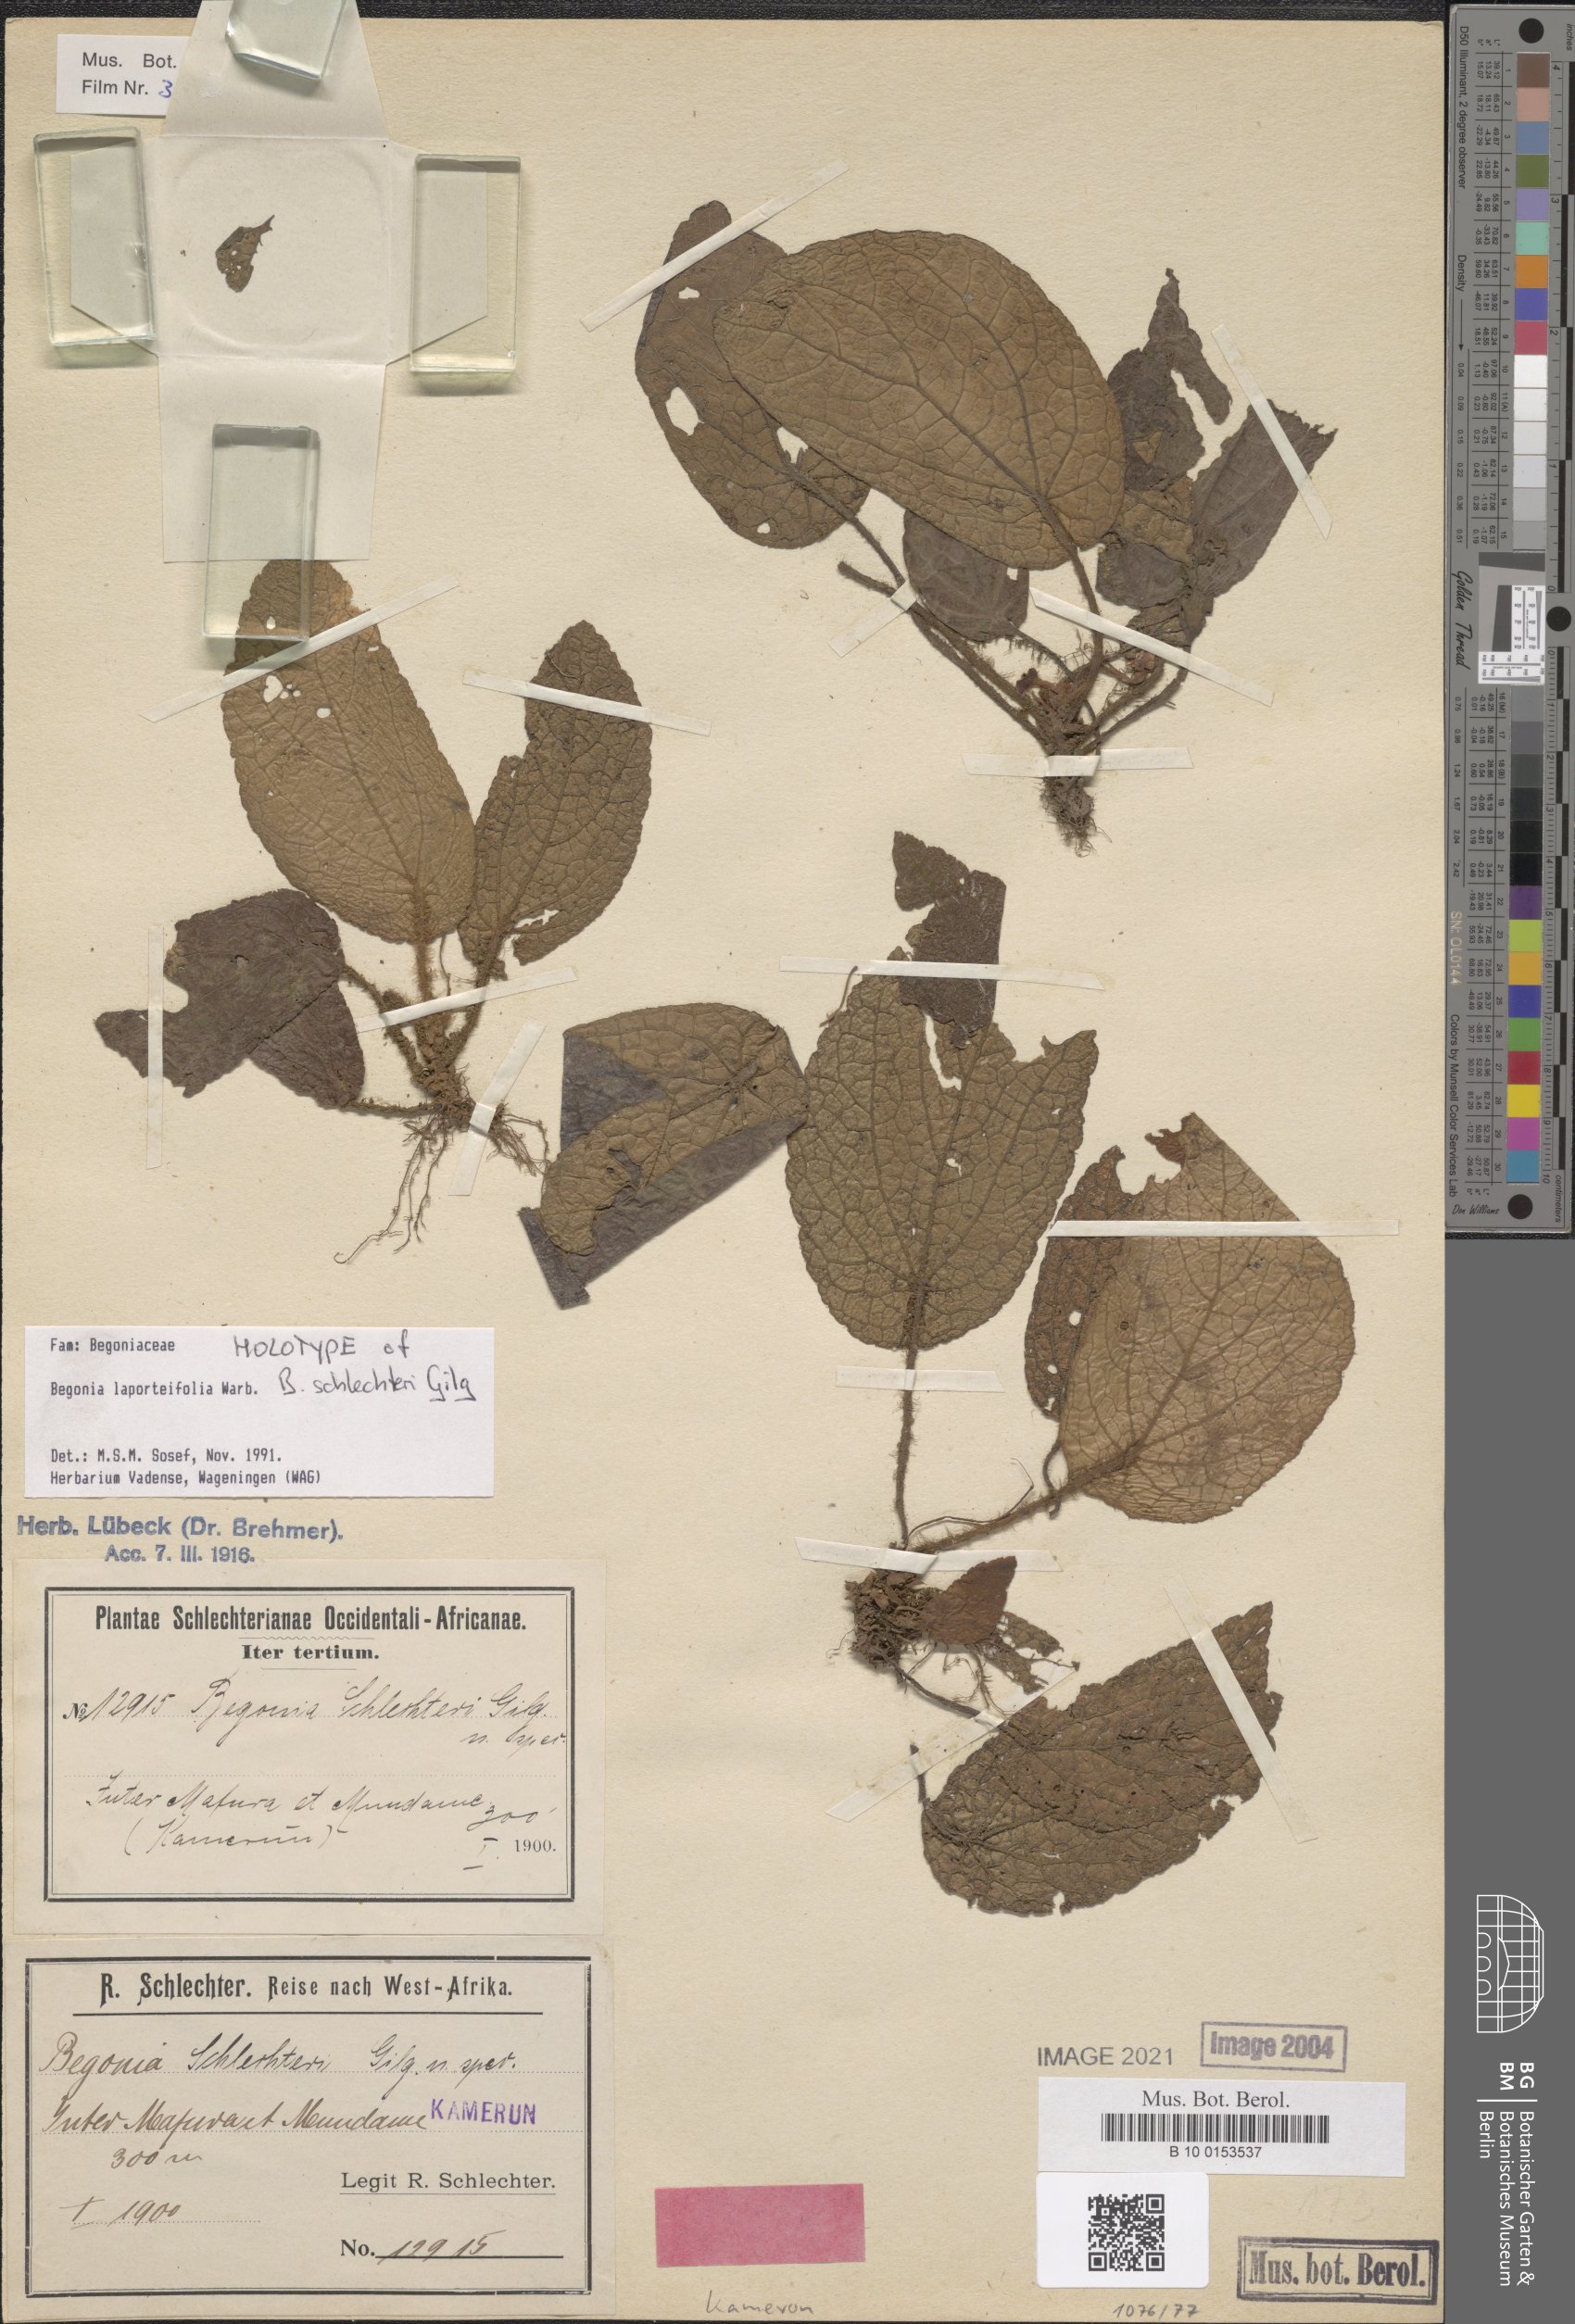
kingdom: Plantae
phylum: Tracheophyta
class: Magnoliopsida
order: Cucurbitales
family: Begoniaceae
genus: Begonia
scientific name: Begonia laporteifolia
